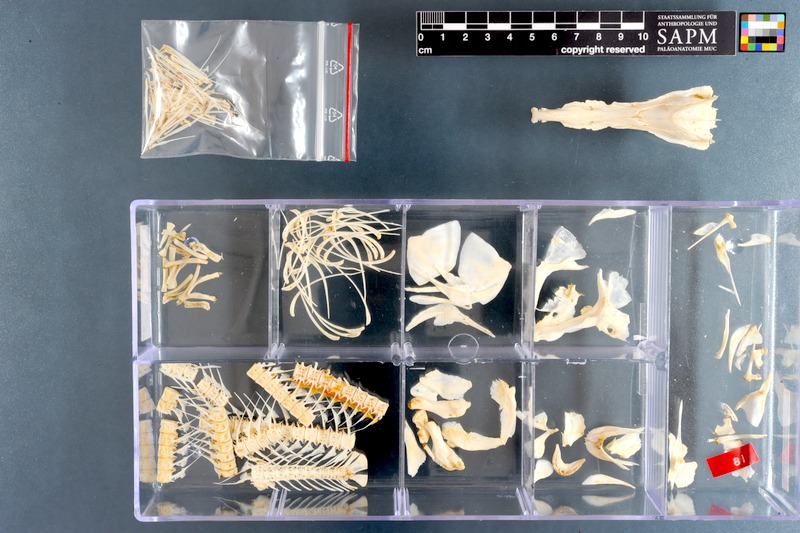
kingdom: Animalia
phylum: Chordata
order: Osteoglossiformes
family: Mormyridae
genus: Mormyrops
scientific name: Mormyrops anguilloides
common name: Cornish jack
